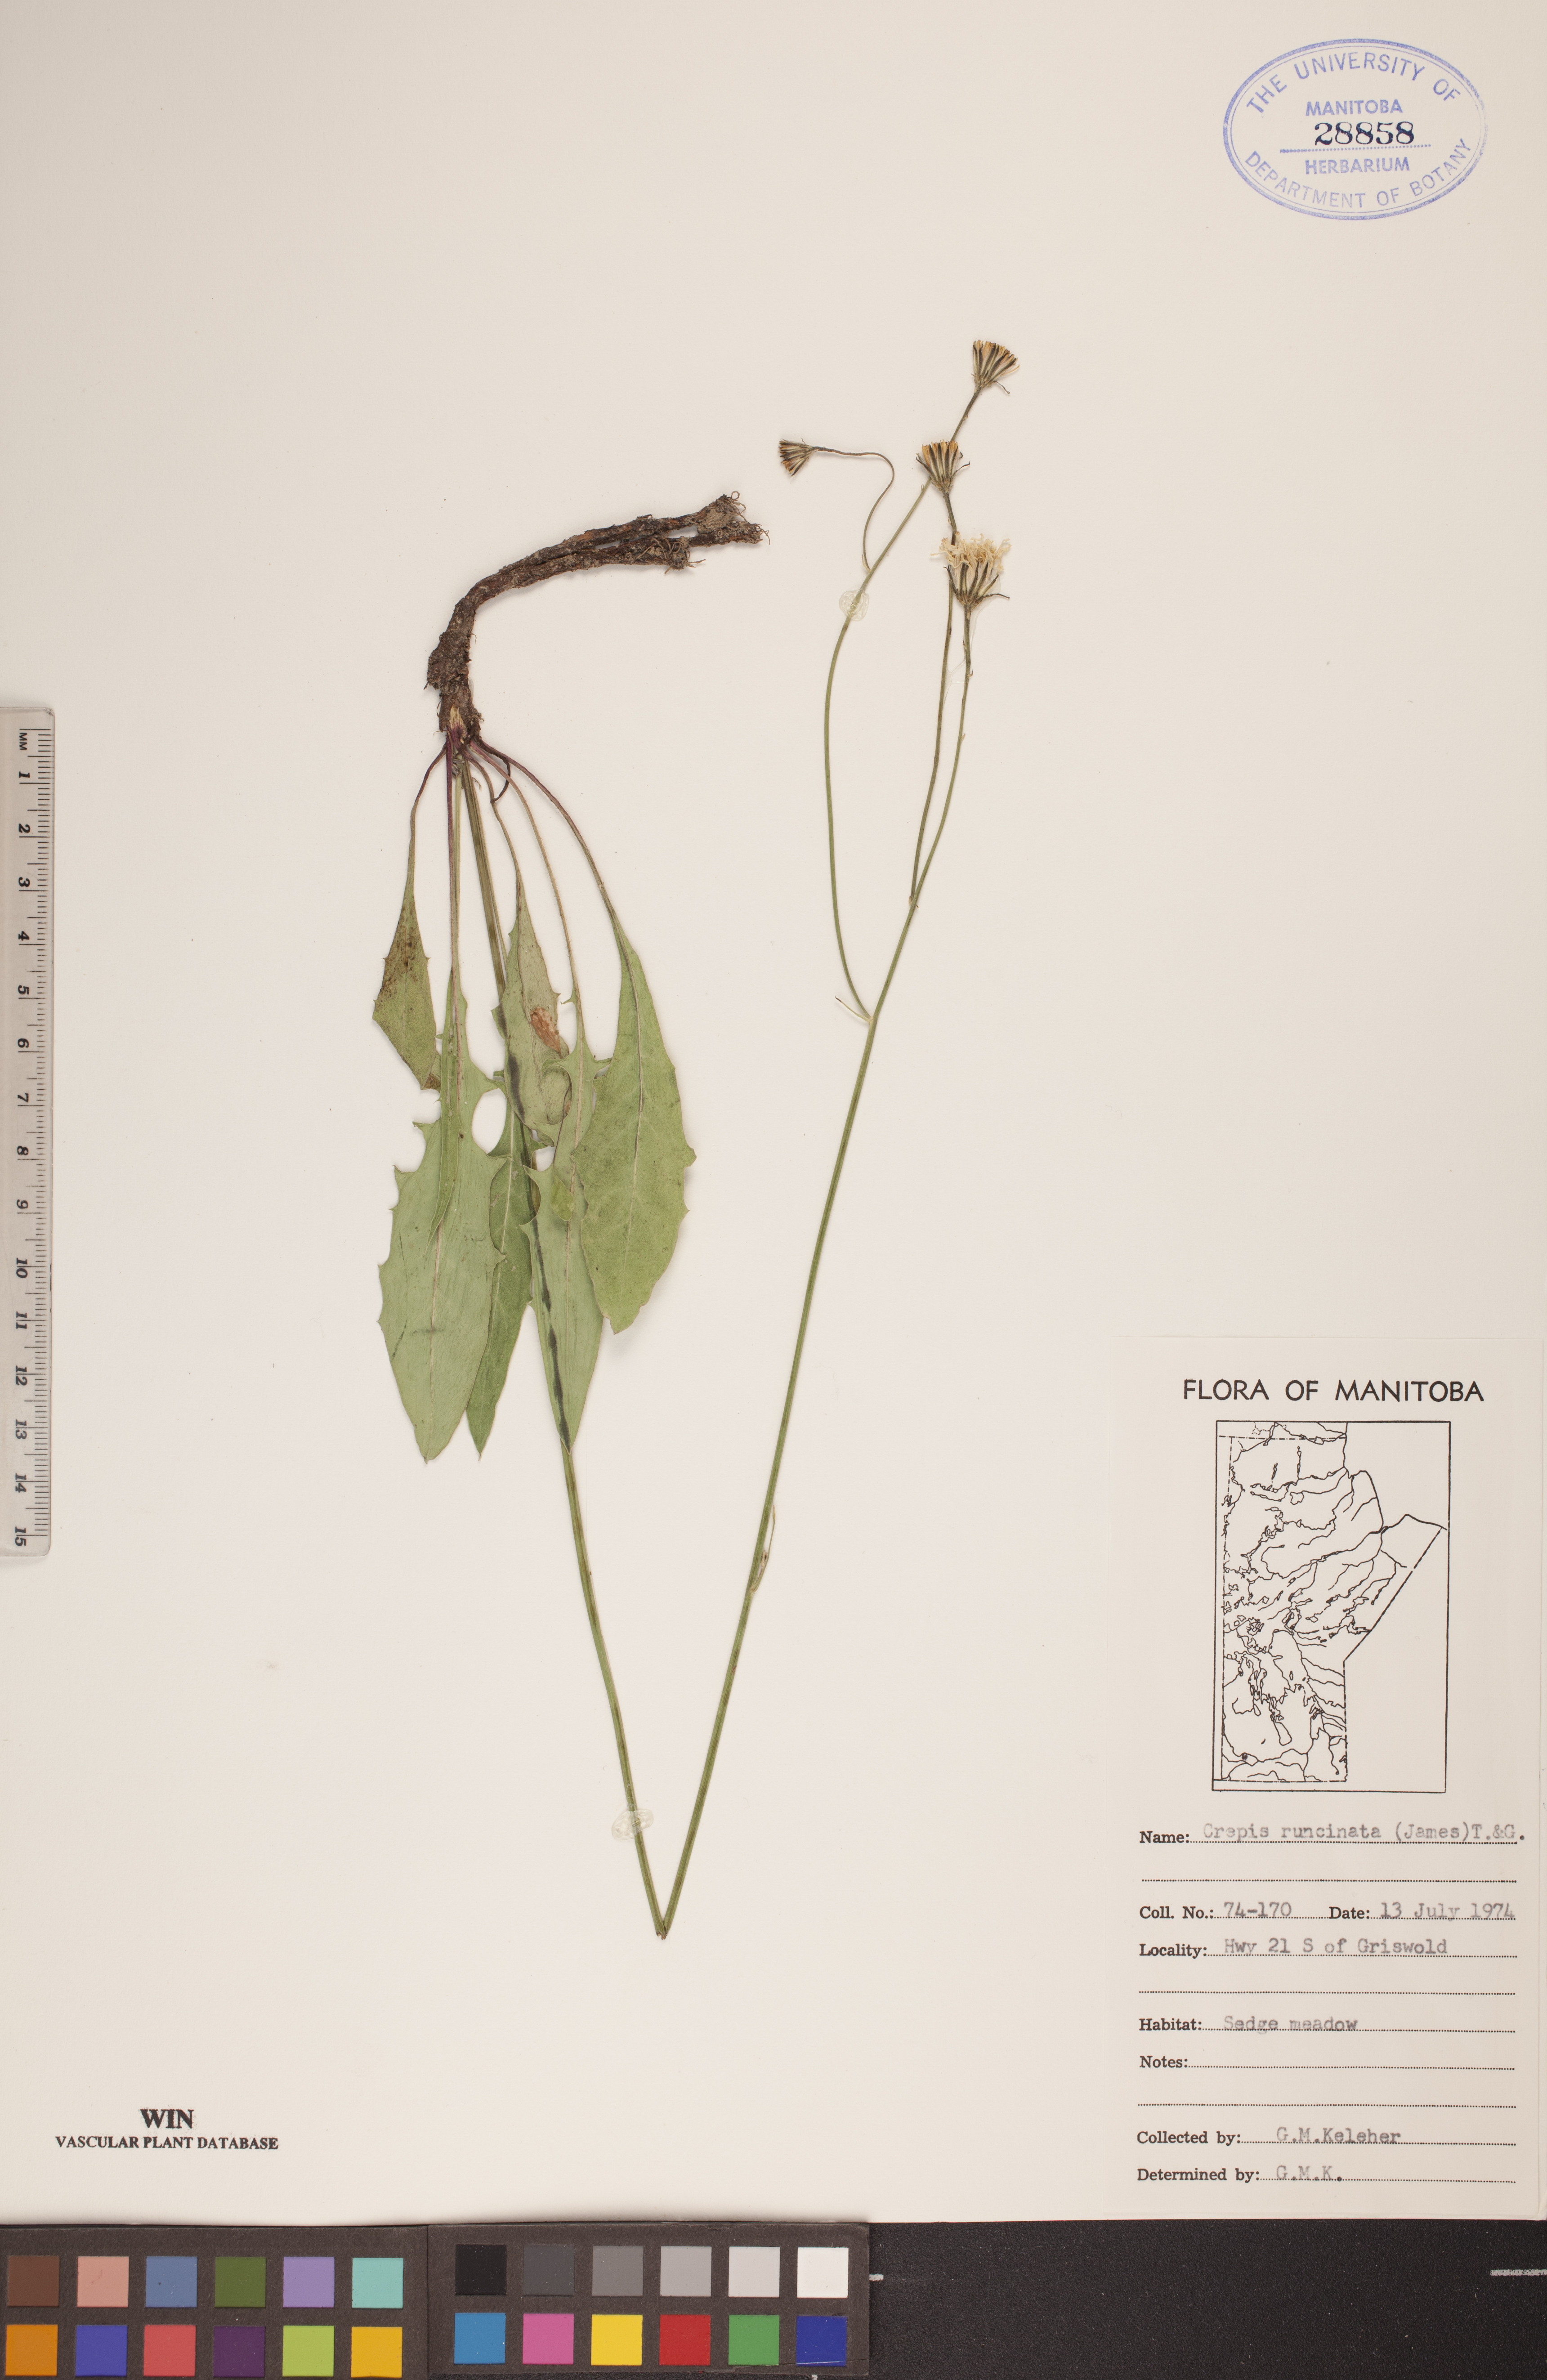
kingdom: Plantae
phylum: Tracheophyta
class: Magnoliopsida
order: Asterales
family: Asteraceae
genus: Crepis
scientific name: Crepis runcinata
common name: Dandelion hawksbeard
